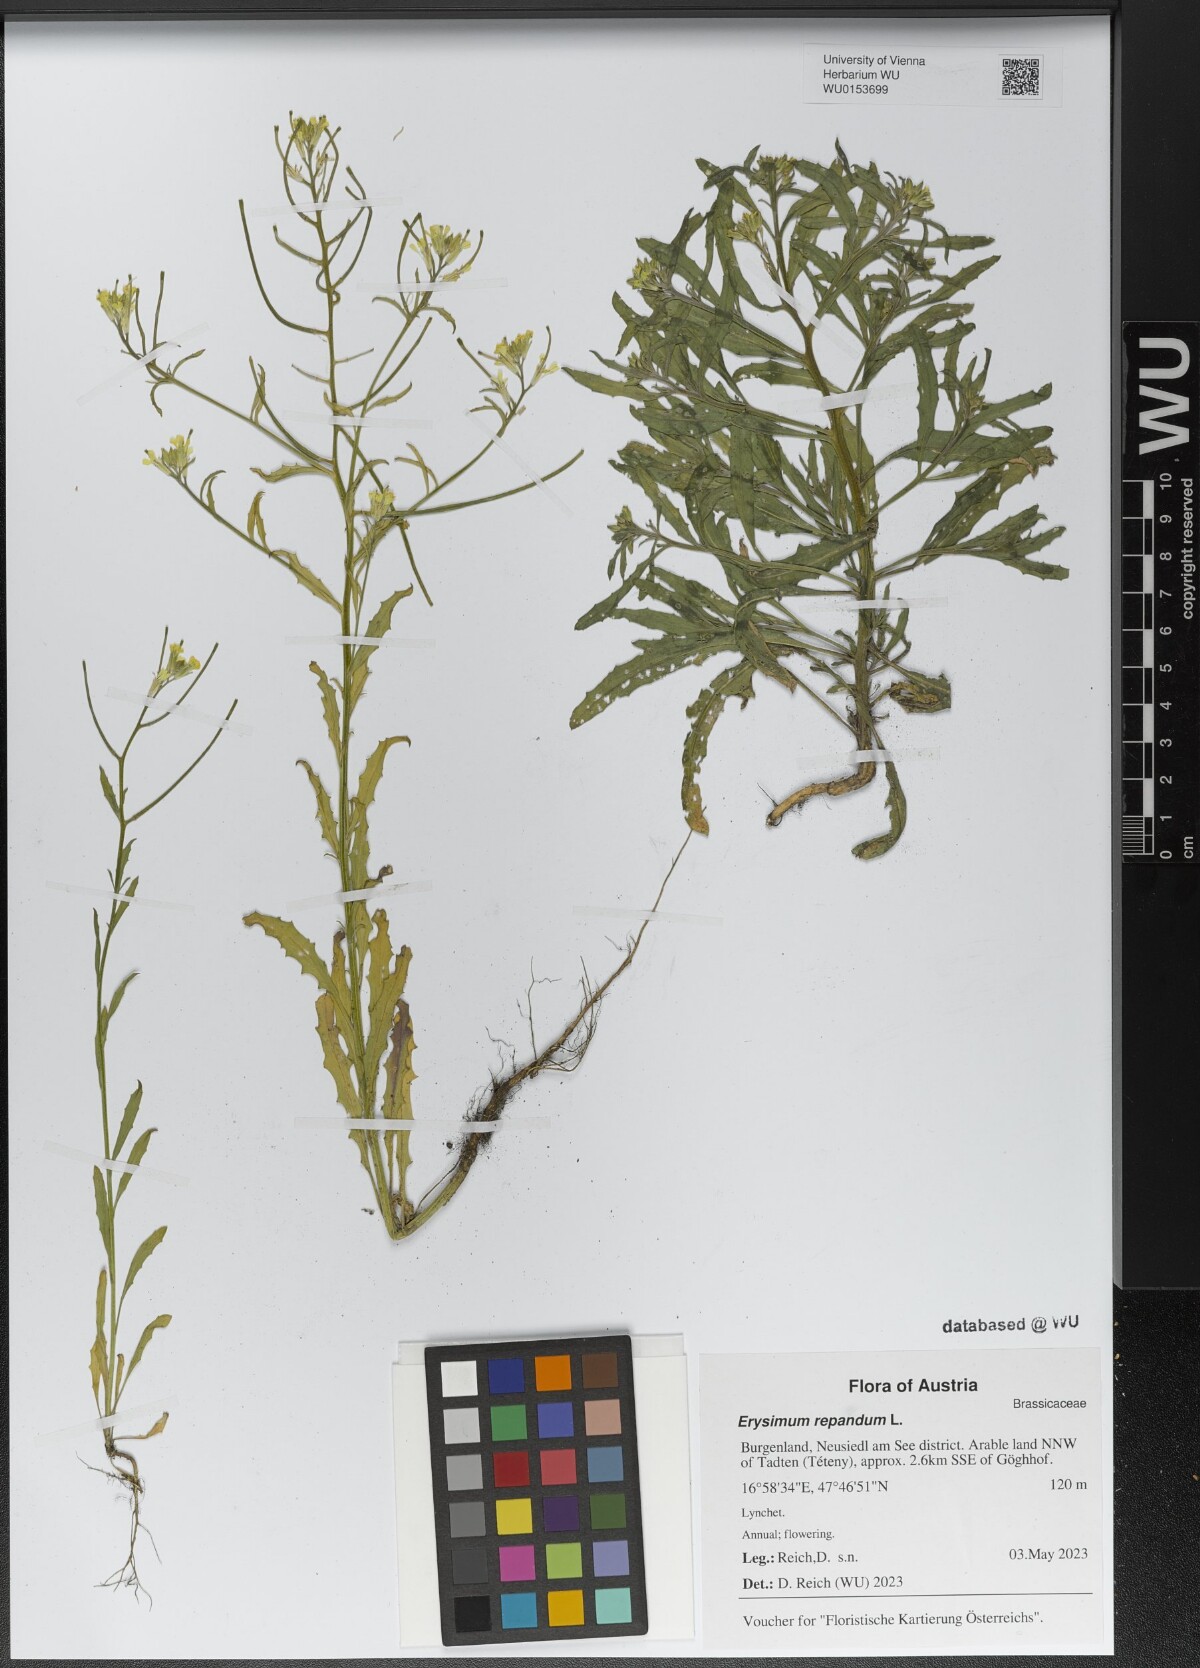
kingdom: Plantae
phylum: Tracheophyta
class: Magnoliopsida
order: Brassicales
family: Brassicaceae
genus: Erysimum
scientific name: Erysimum repandum
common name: Spreading wallflower
